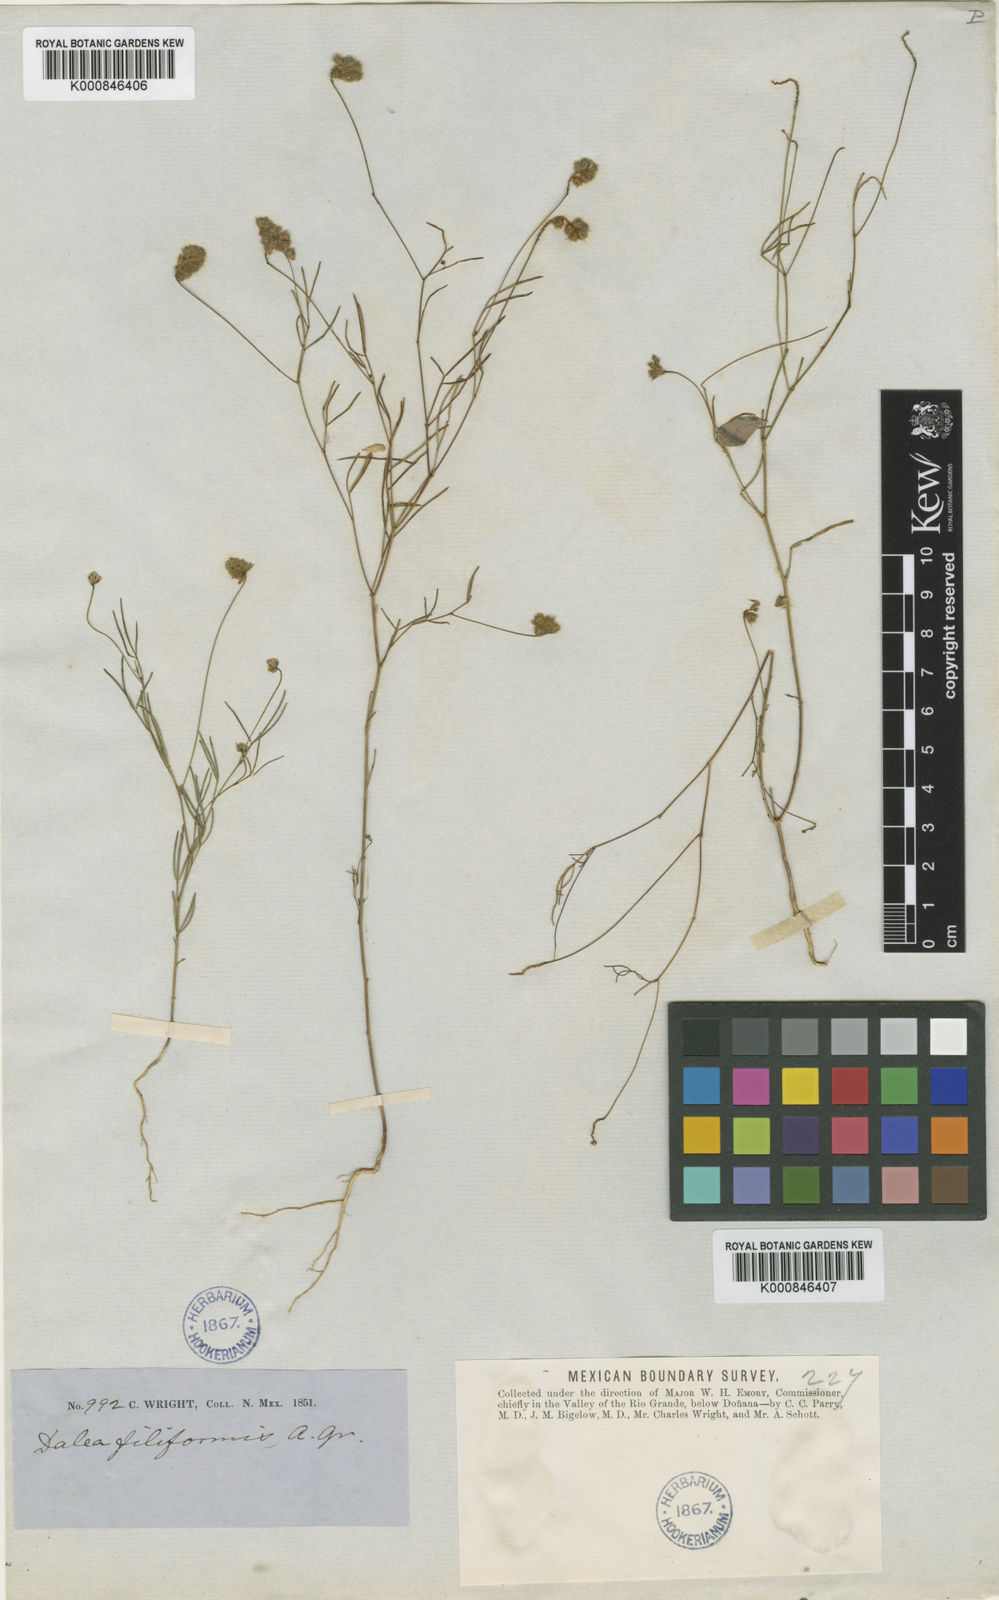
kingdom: Plantae
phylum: Tracheophyta
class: Magnoliopsida
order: Fabales
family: Fabaceae
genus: Dalea
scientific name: Dalea filiformis
